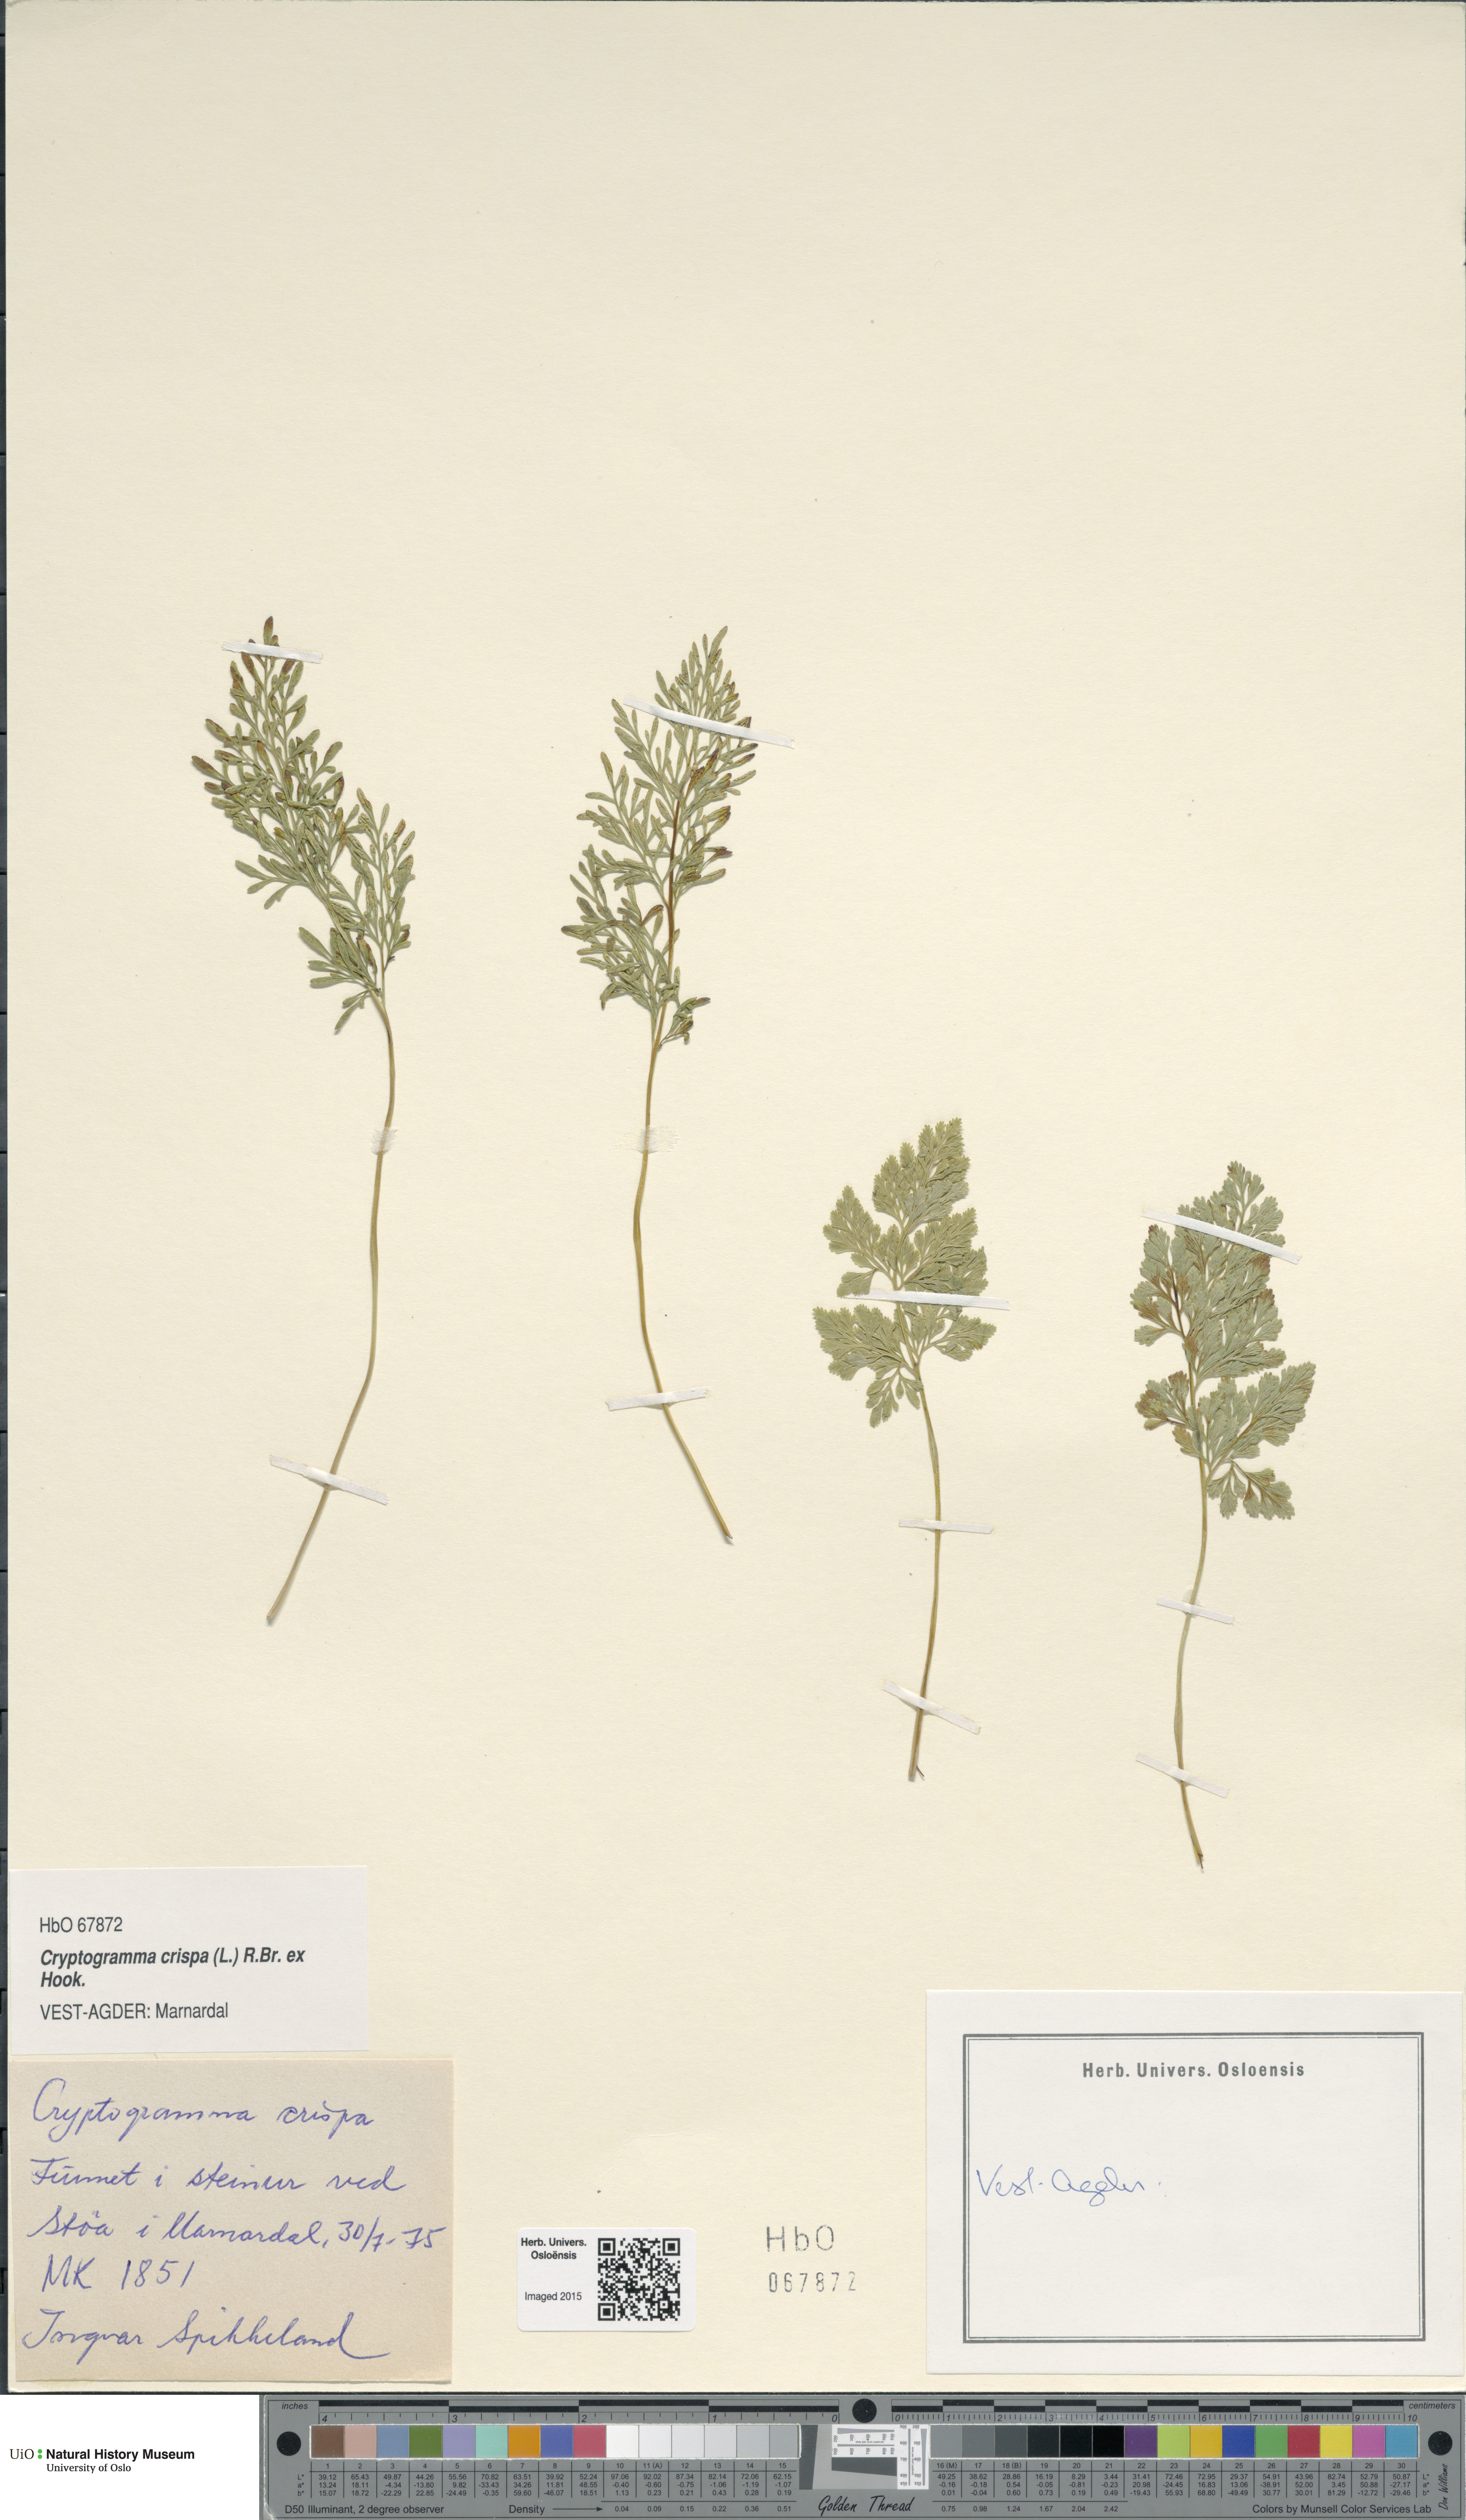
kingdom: Plantae
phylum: Tracheophyta
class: Polypodiopsida
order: Polypodiales
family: Pteridaceae
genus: Cryptogramma
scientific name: Cryptogramma crispa
